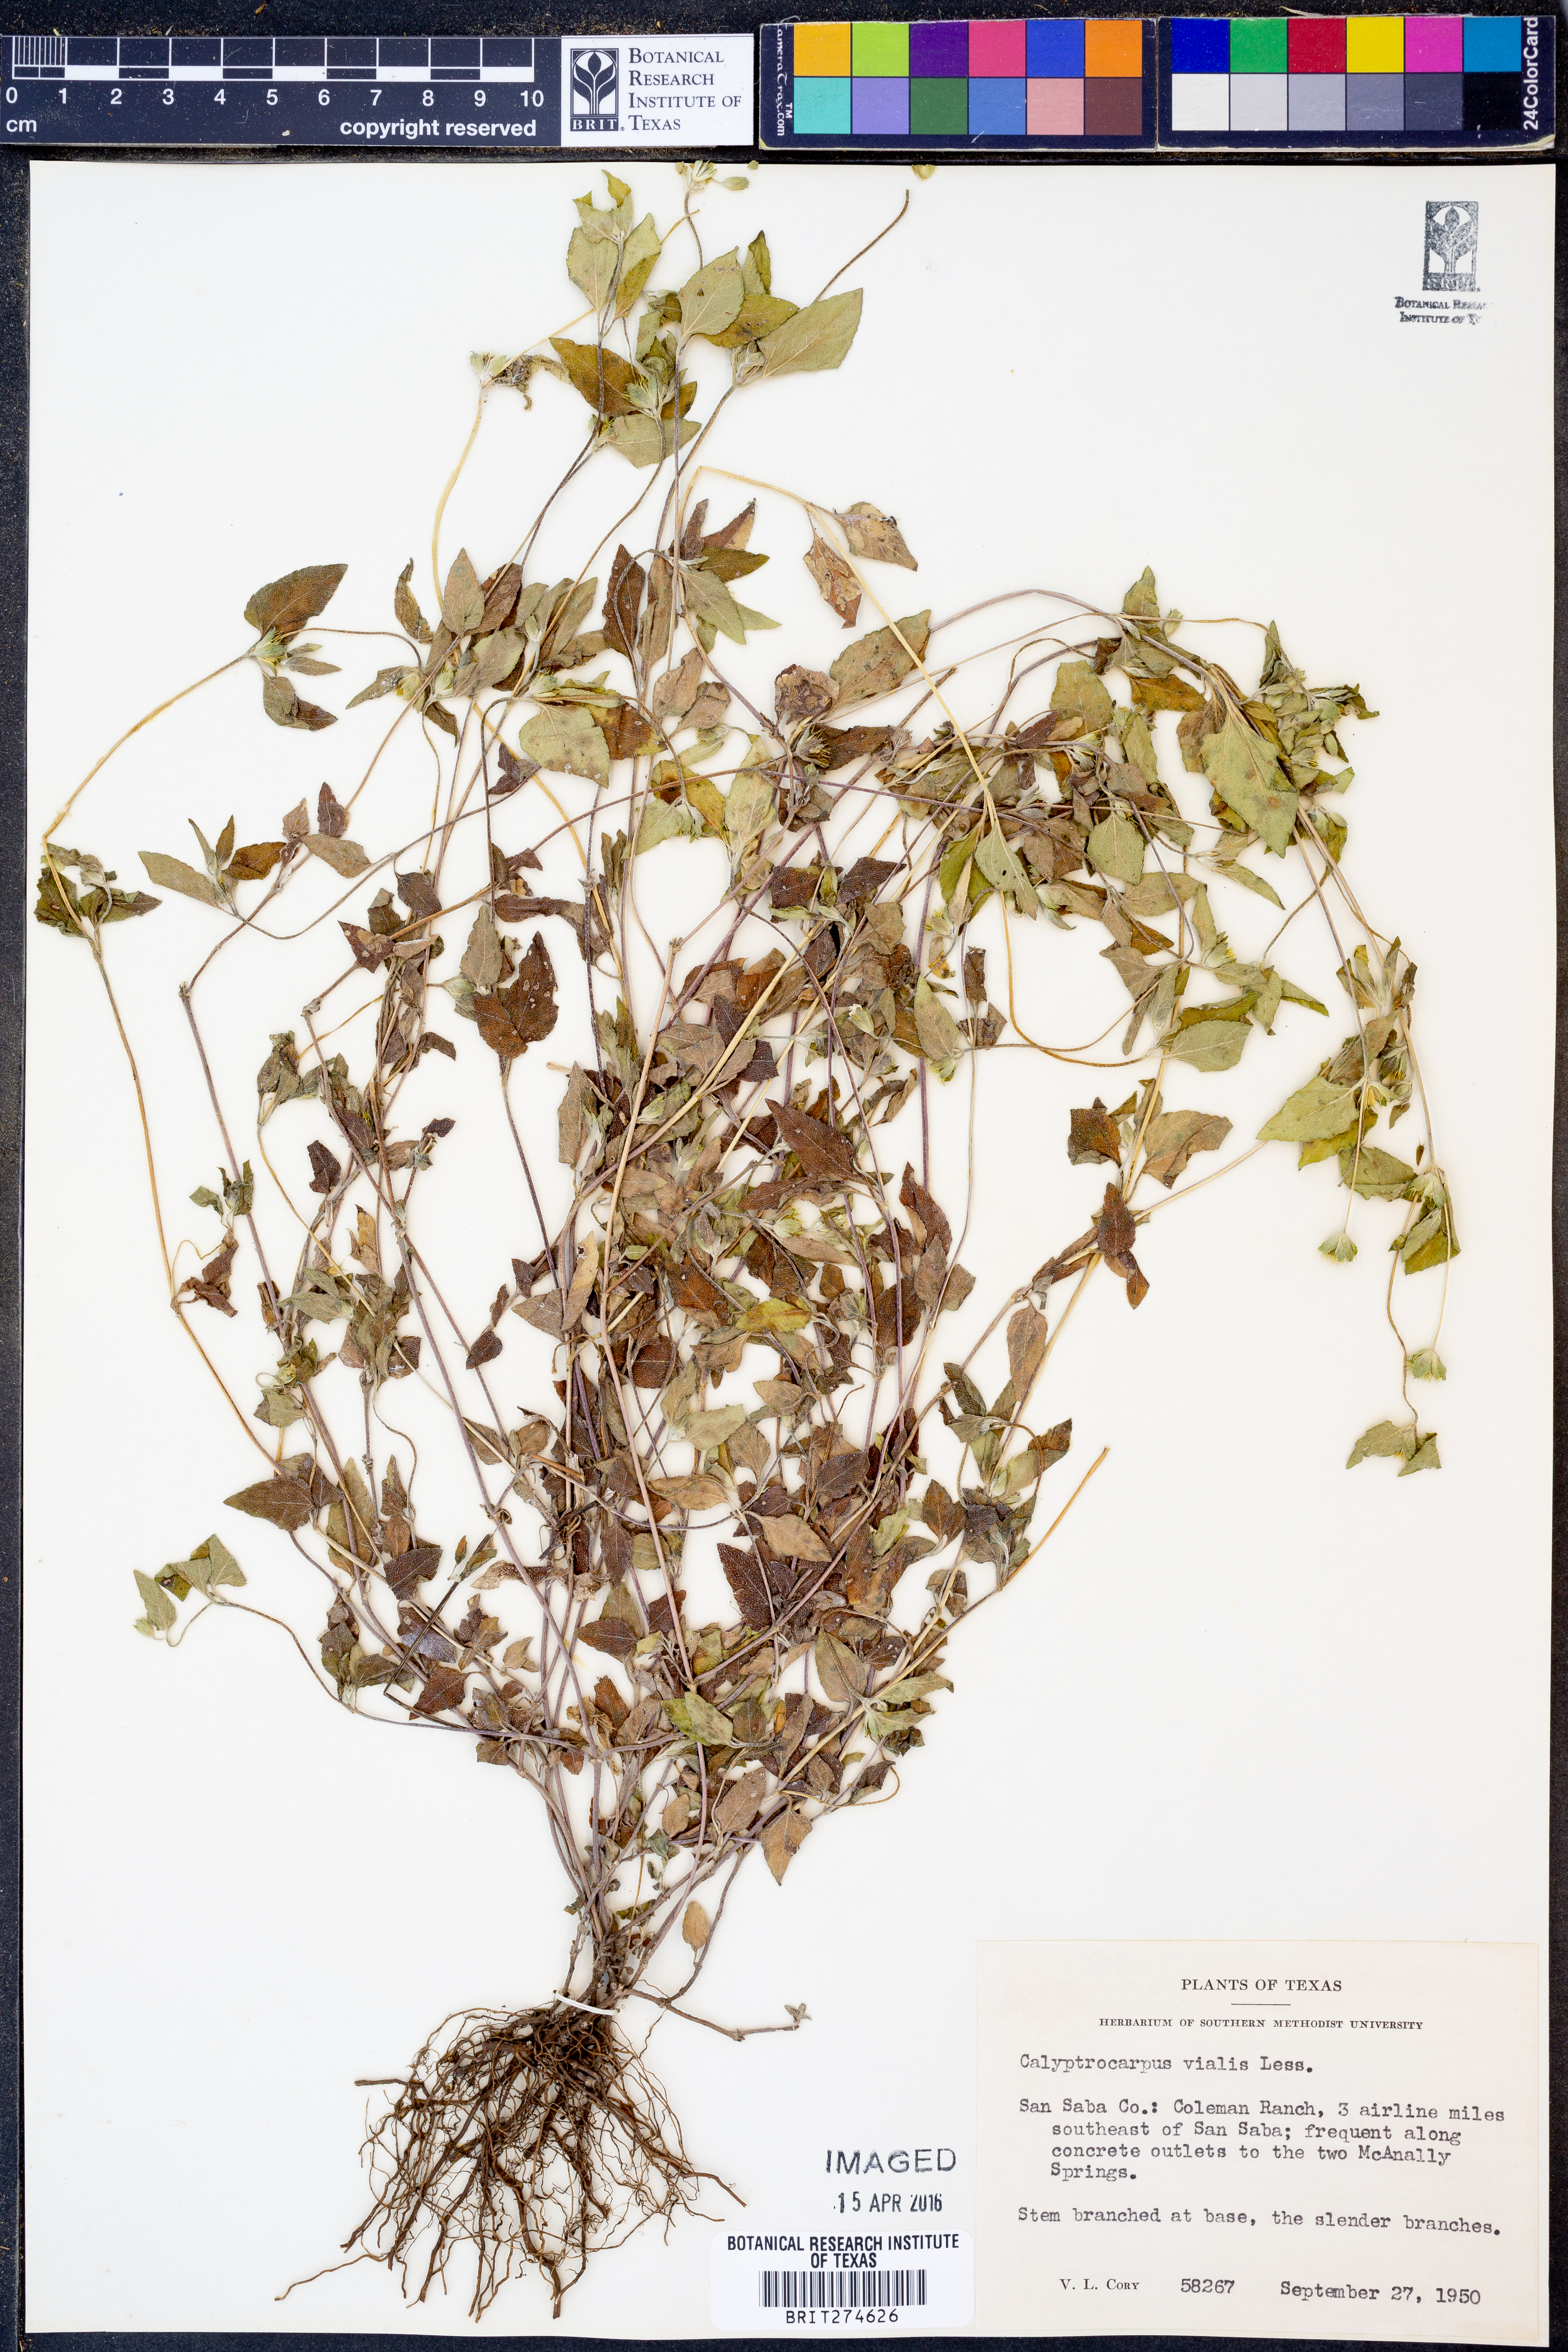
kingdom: Plantae
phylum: Tracheophyta
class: Magnoliopsida
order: Asterales
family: Asteraceae
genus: Calyptocarpus
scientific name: Calyptocarpus vialis
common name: Straggler daisy
